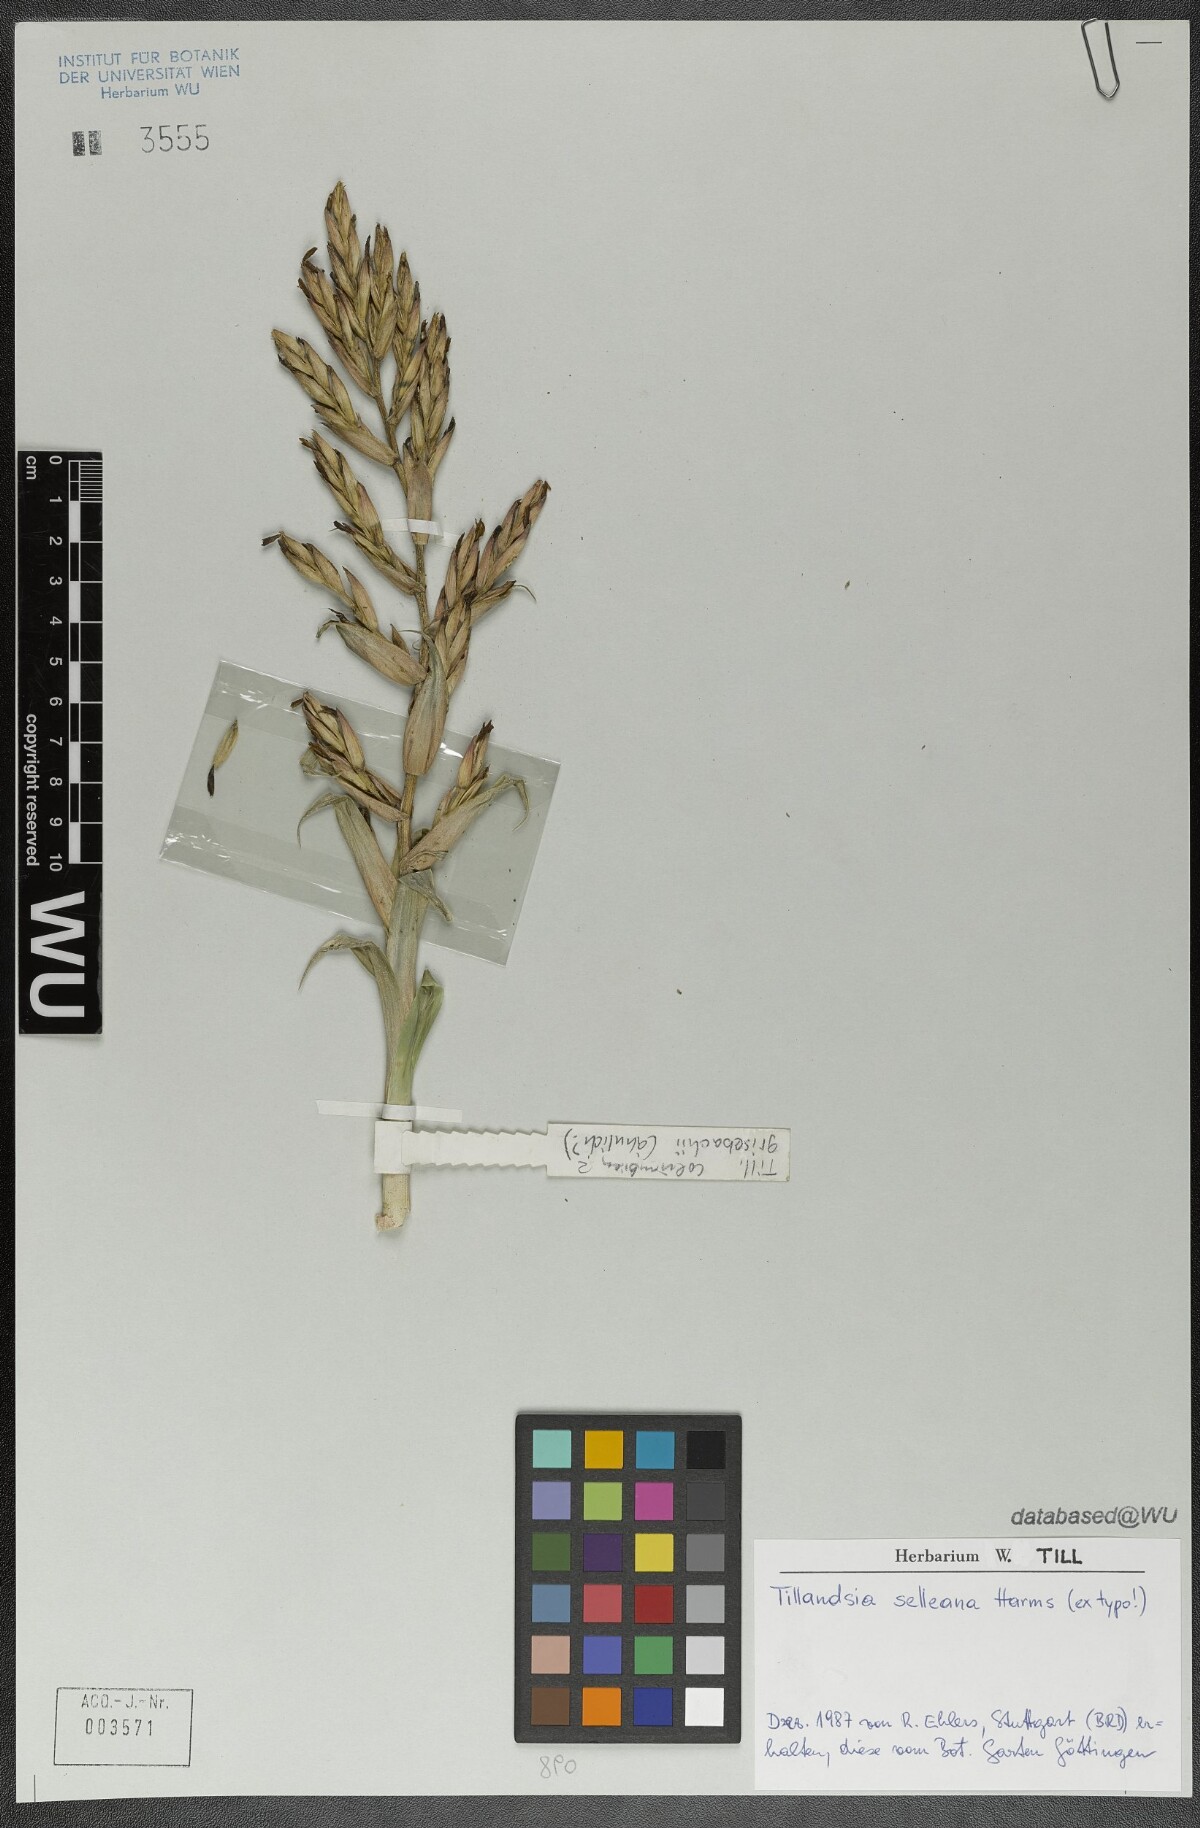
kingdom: Plantae
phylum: Tracheophyta
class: Liliopsida
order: Poales
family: Bromeliaceae
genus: Tillandsia
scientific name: Tillandsia selleana
